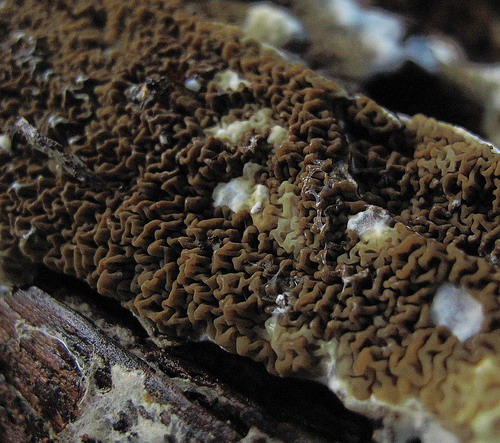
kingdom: Fungi
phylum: Basidiomycota
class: Agaricomycetes
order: Boletales
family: Serpulaceae
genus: Serpula
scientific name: Serpula himantioides
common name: tyndkødet hussvamp
